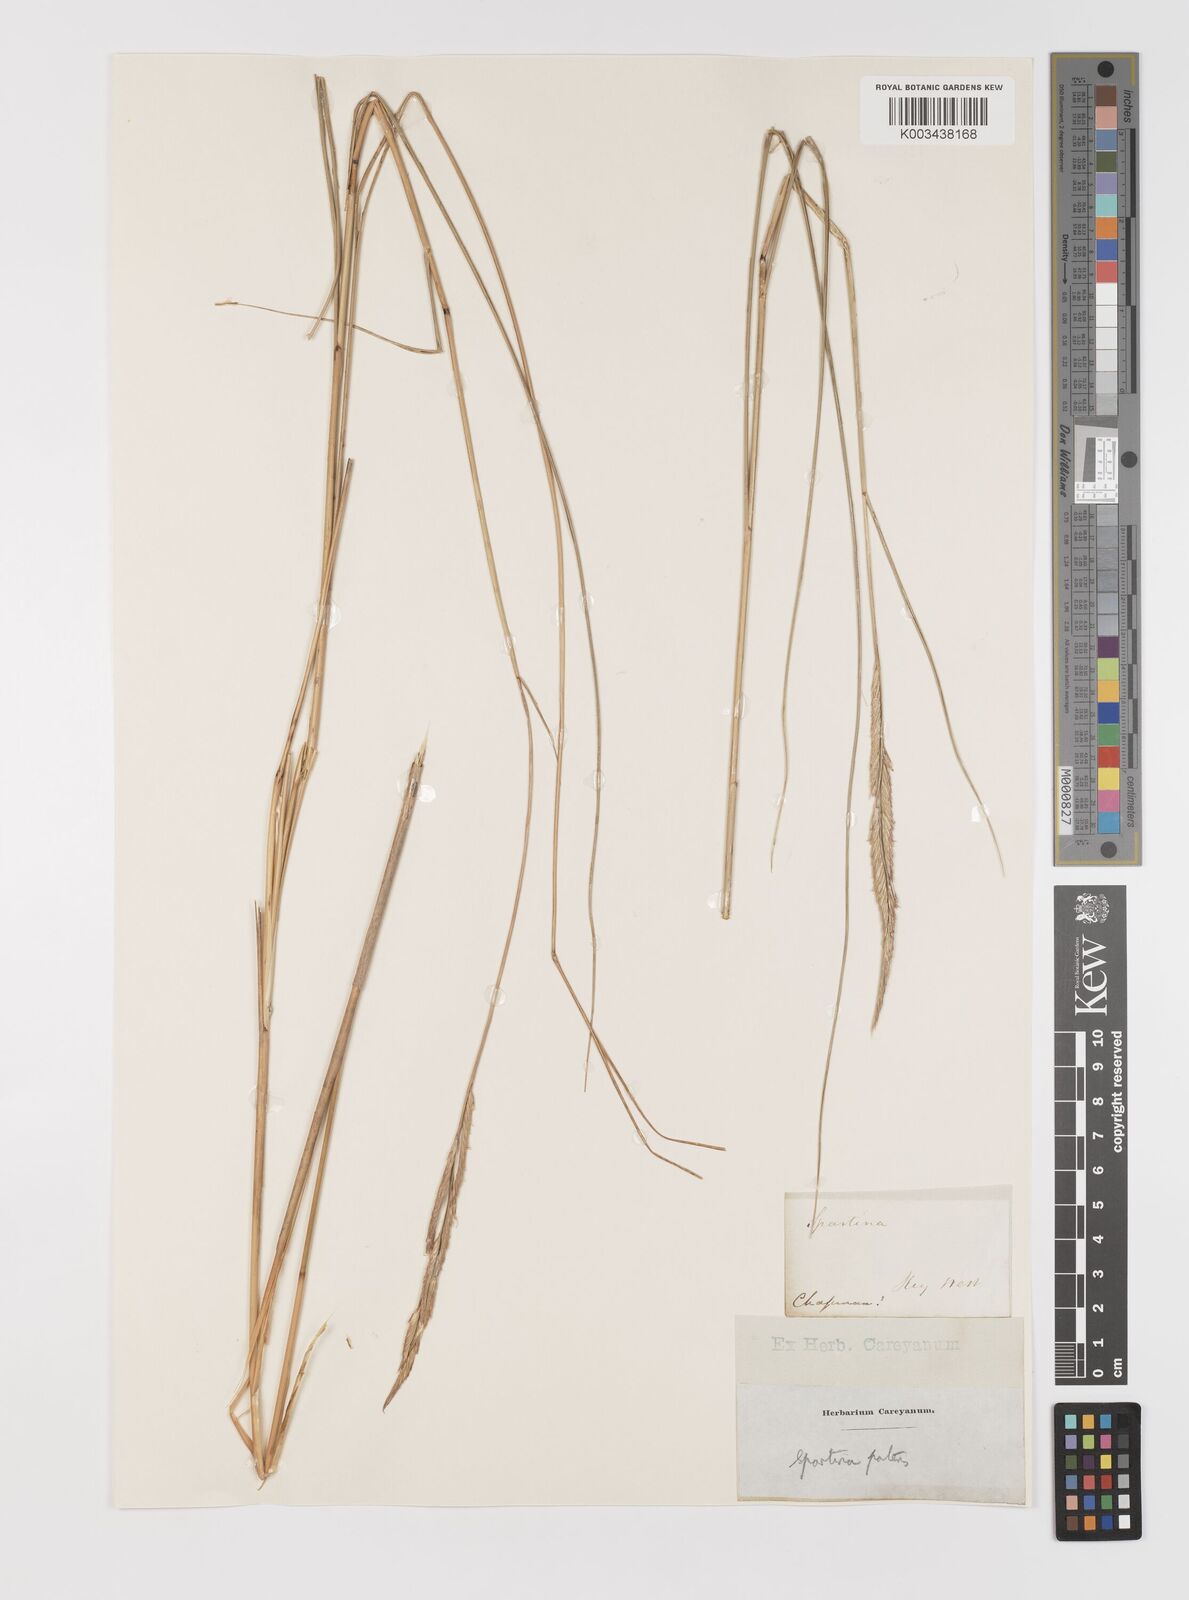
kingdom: Plantae
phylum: Tracheophyta
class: Liliopsida
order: Poales
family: Poaceae
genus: Sporobolus
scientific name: Sporobolus pumilus
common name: Highwater grass
